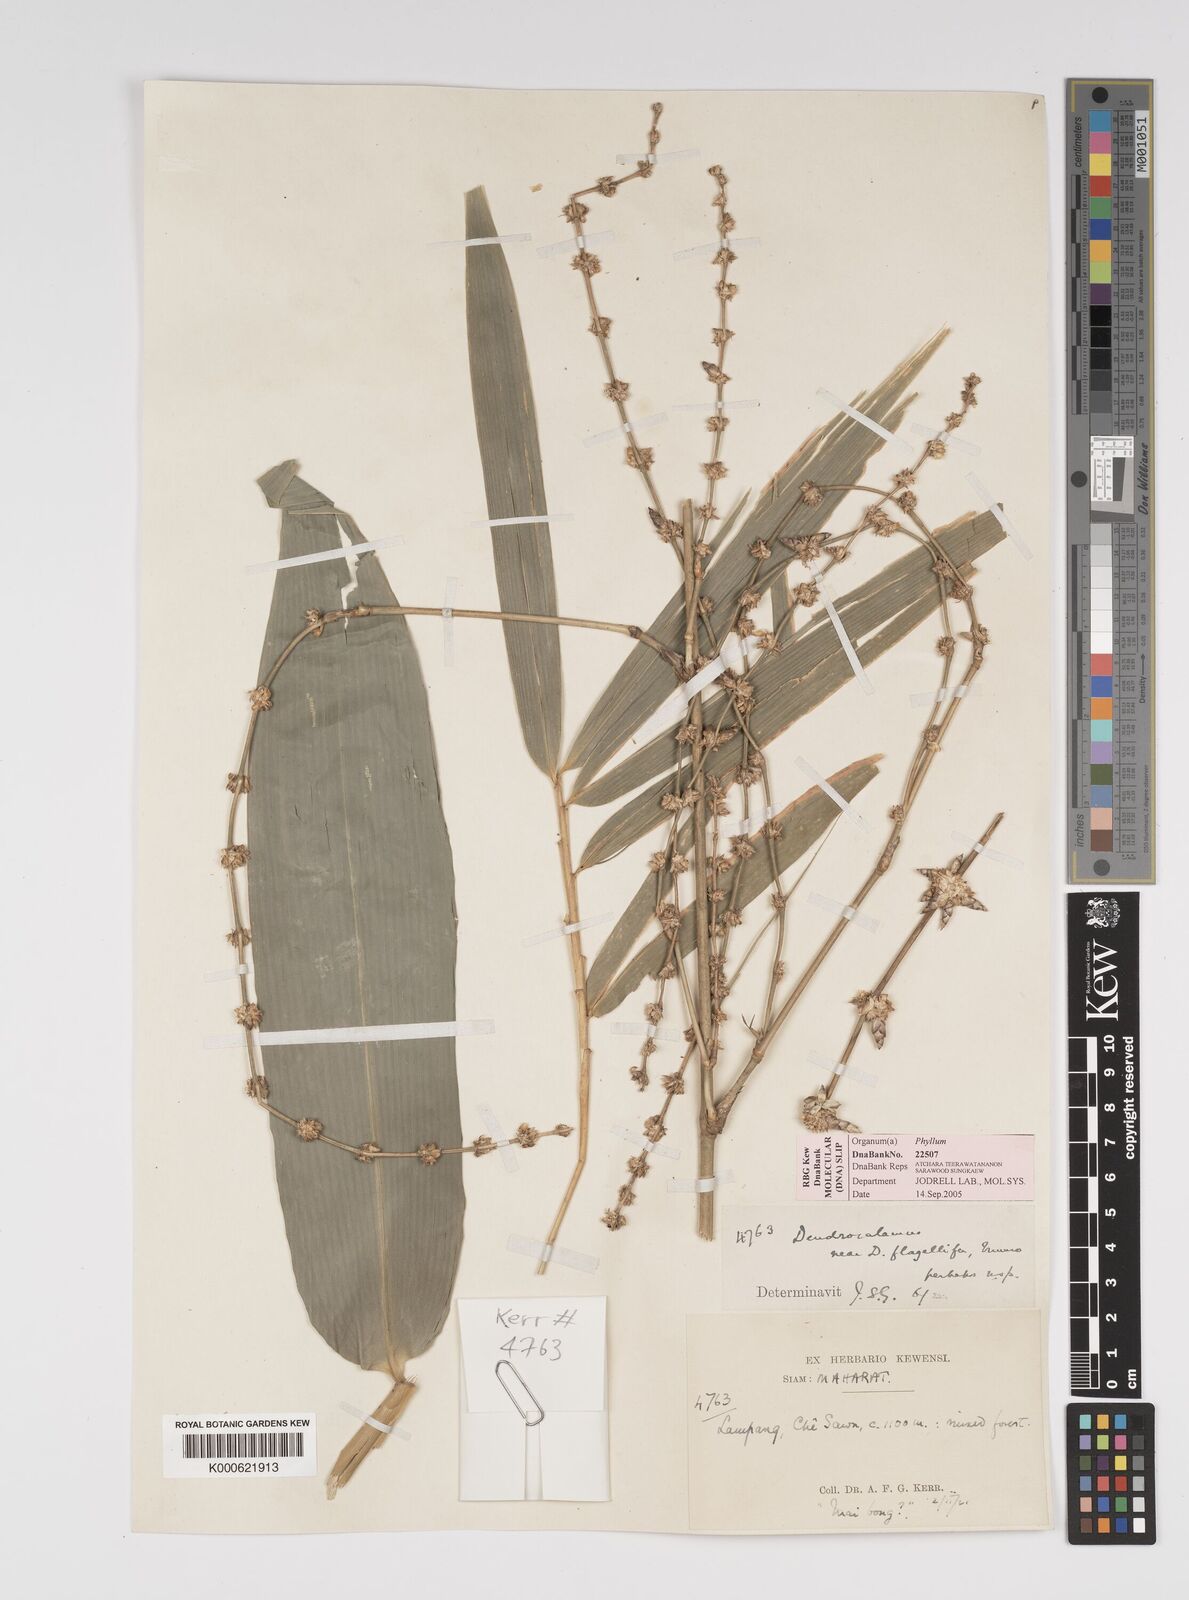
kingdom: Plantae
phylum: Tracheophyta
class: Liliopsida
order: Poales
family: Poaceae
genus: Bambusa
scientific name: Bambusa
